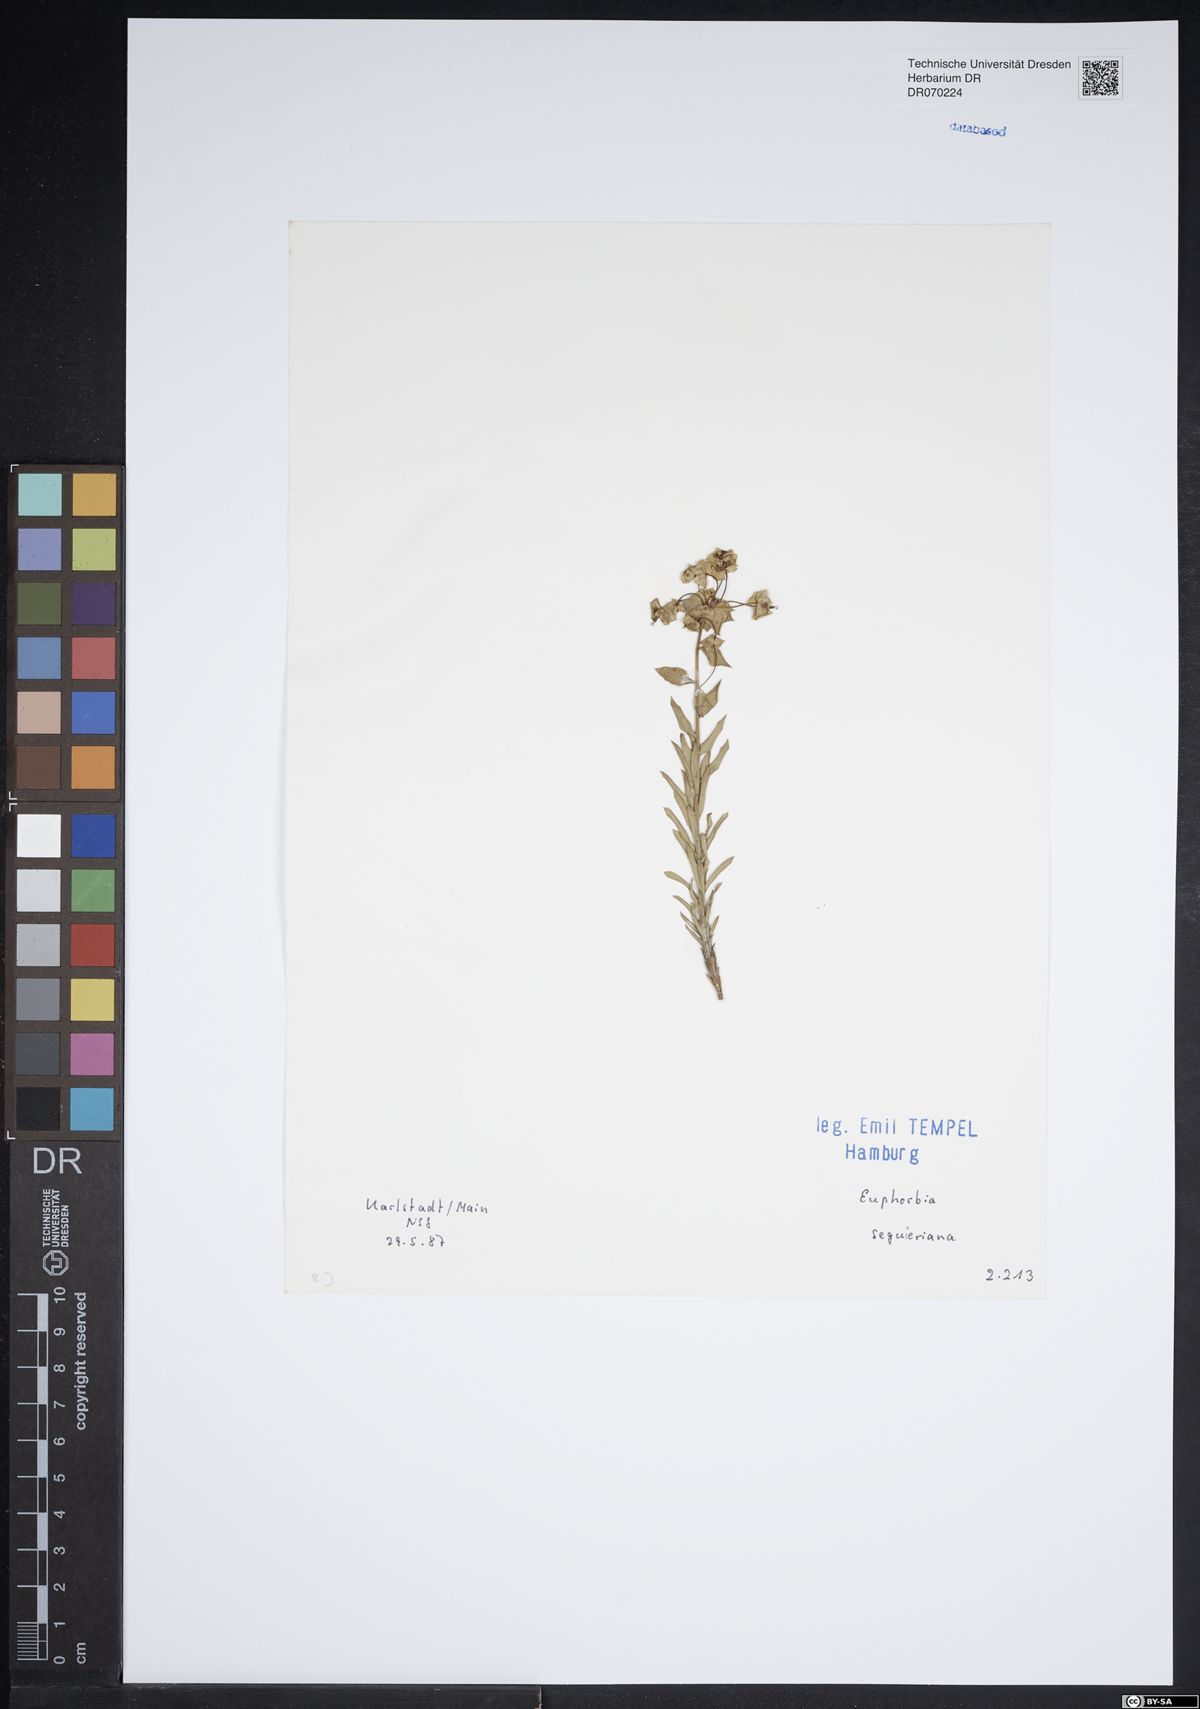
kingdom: Plantae
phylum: Tracheophyta
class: Magnoliopsida
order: Malpighiales
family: Euphorbiaceae
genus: Euphorbia
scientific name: Euphorbia seguieriana
